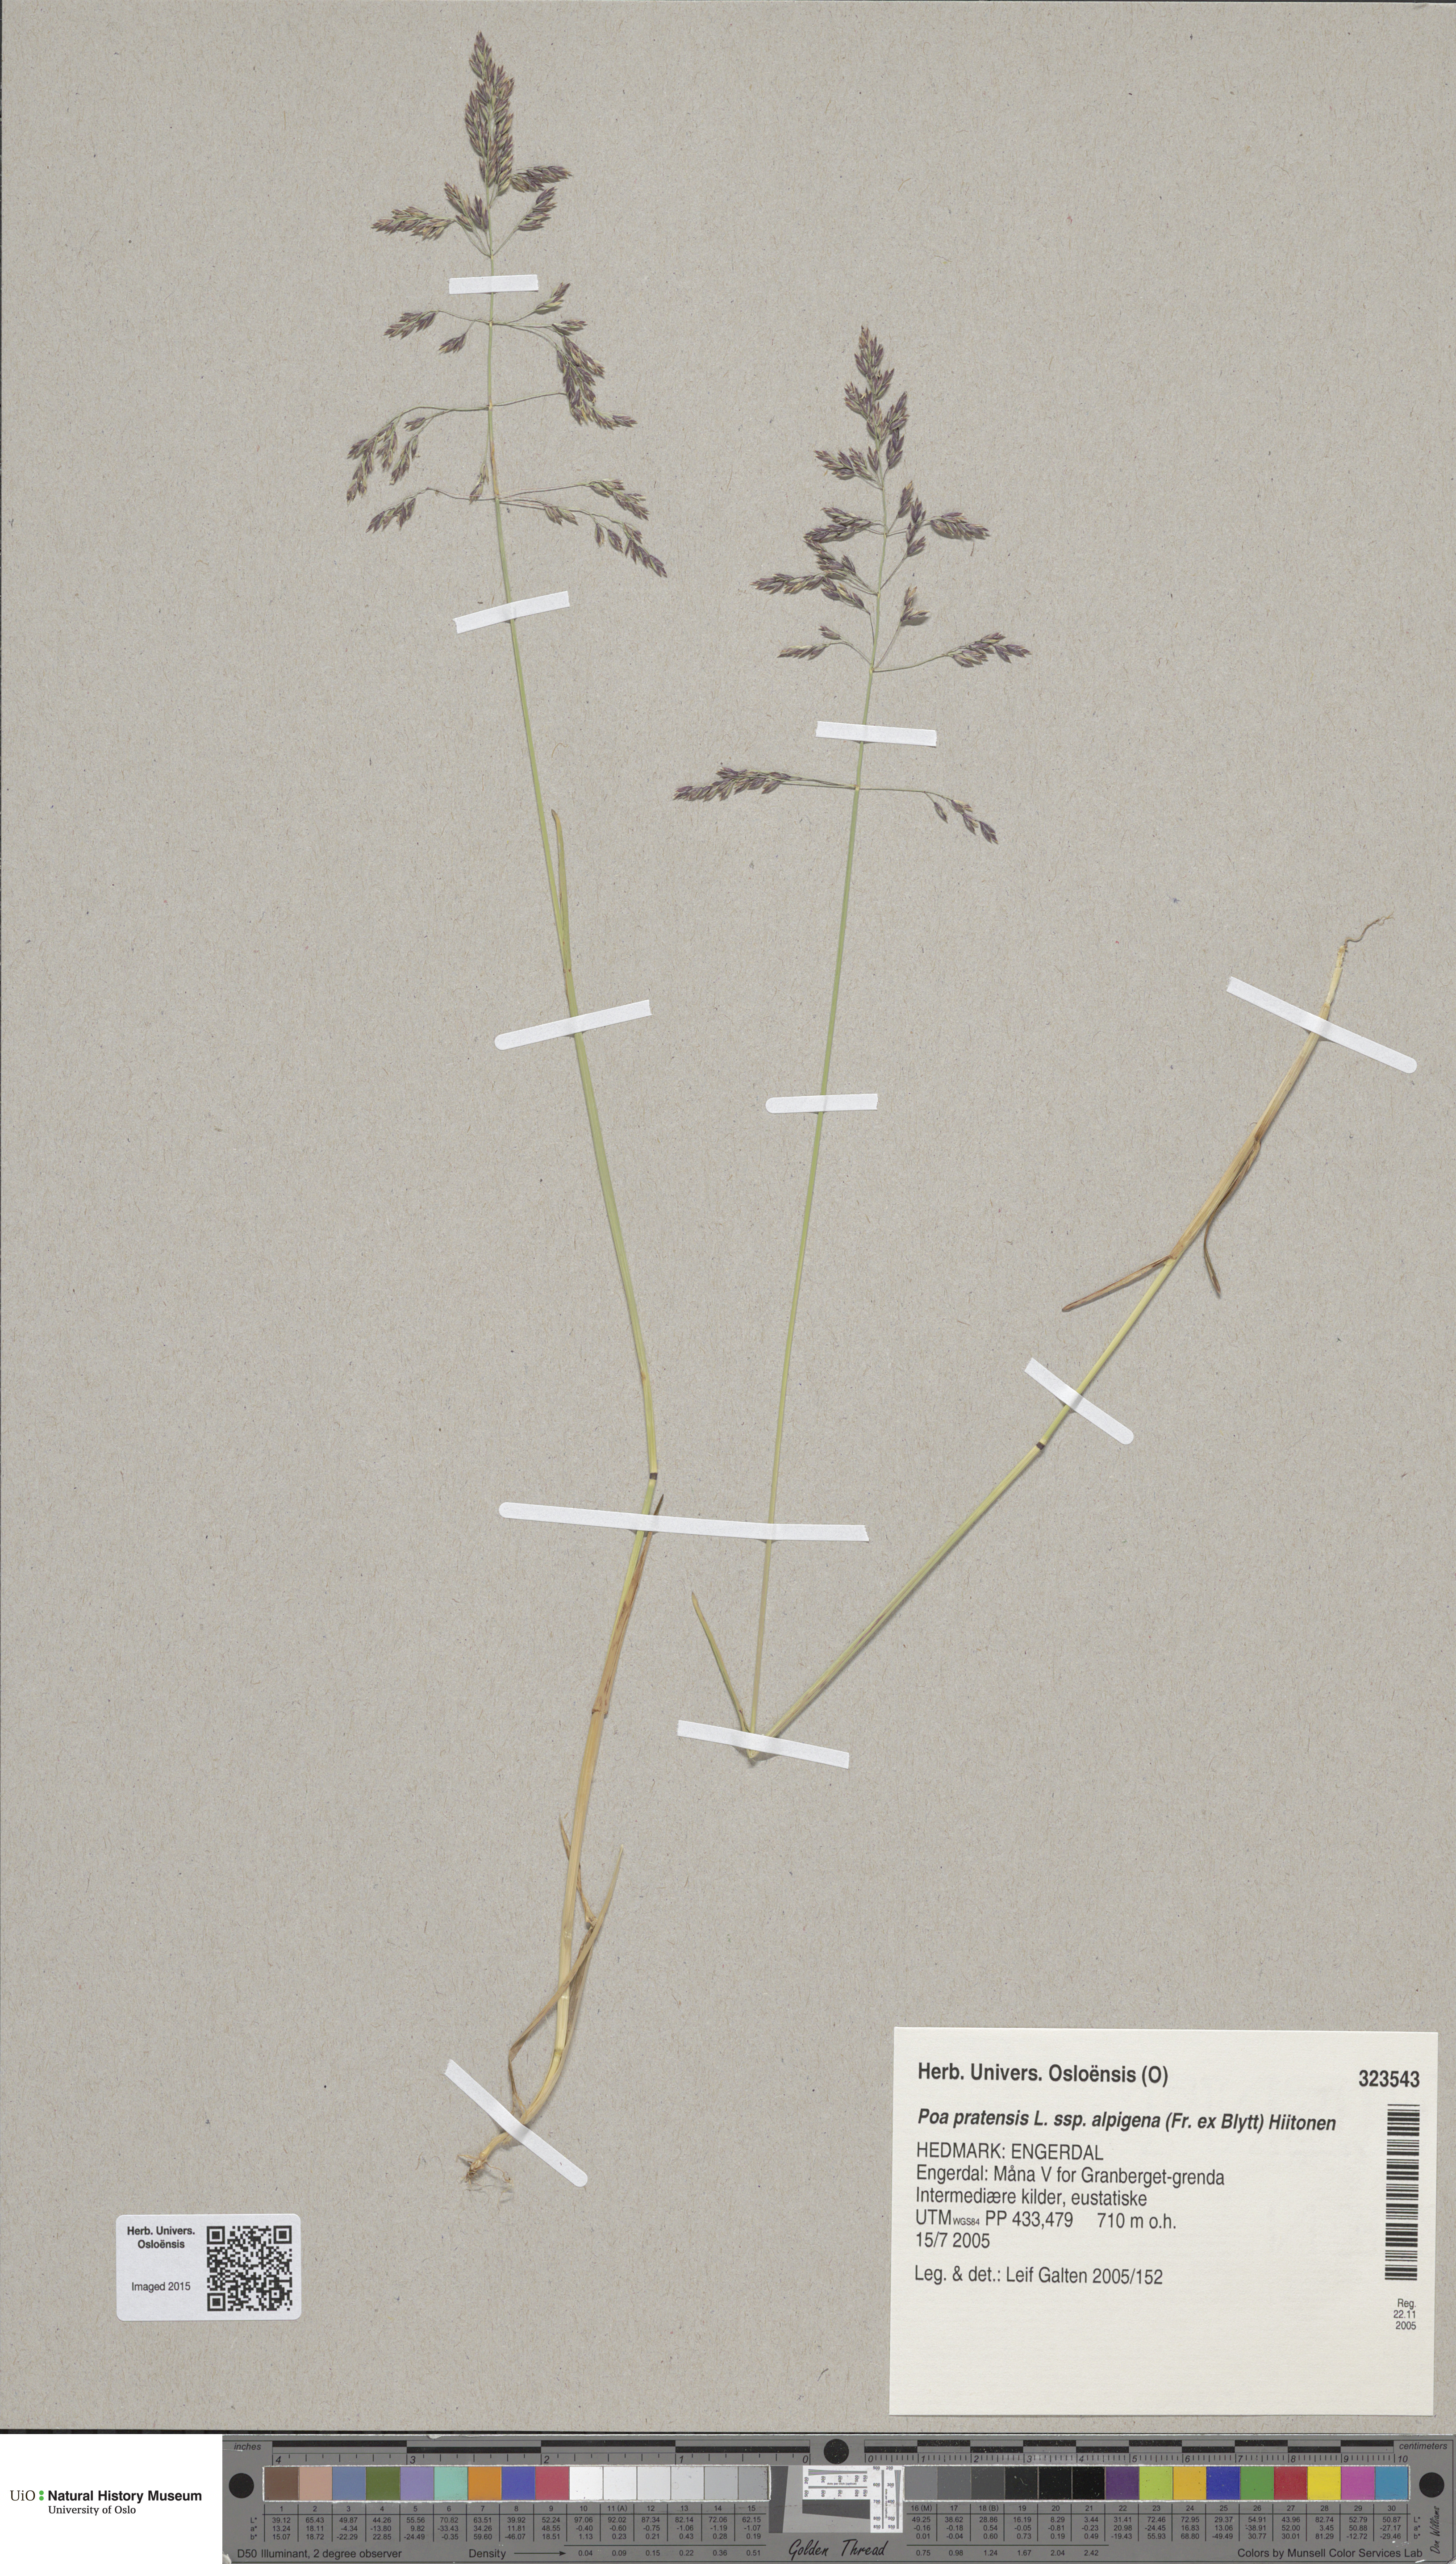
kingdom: Plantae
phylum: Tracheophyta
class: Liliopsida
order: Poales
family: Poaceae
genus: Poa
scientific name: Poa alpigena
